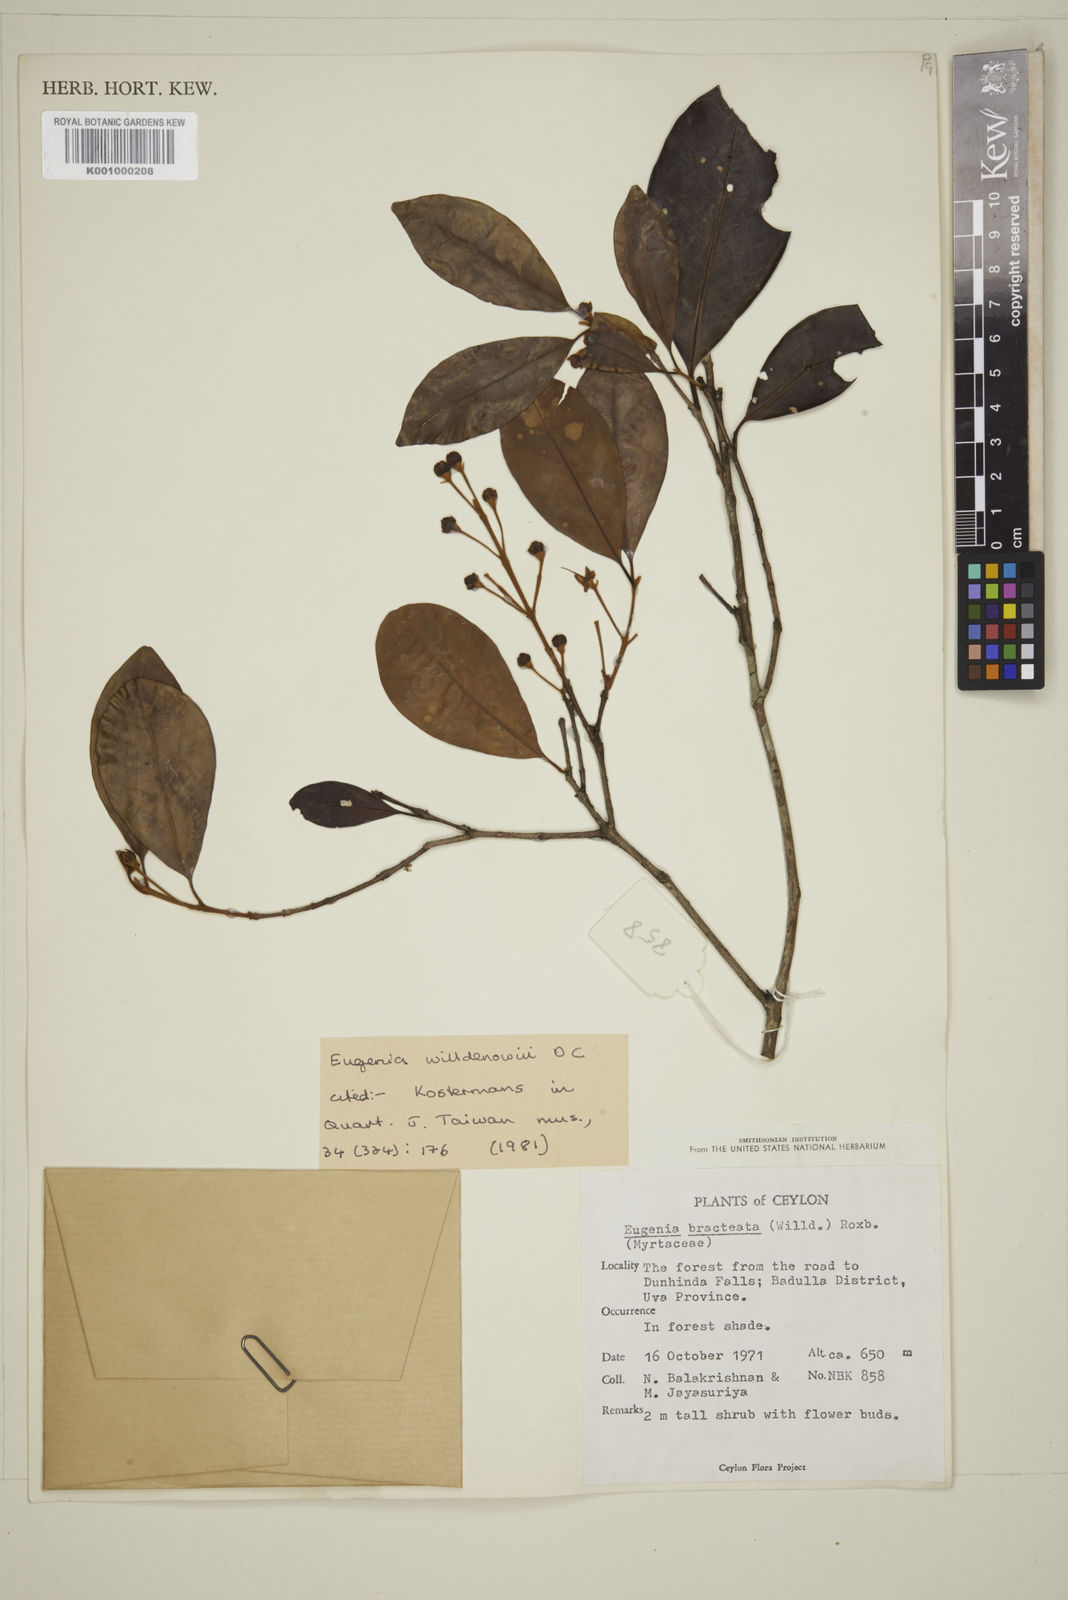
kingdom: Plantae
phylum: Tracheophyta
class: Magnoliopsida
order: Myrtales
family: Myrtaceae
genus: Eugenia
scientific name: Eugenia pseudopsidium
